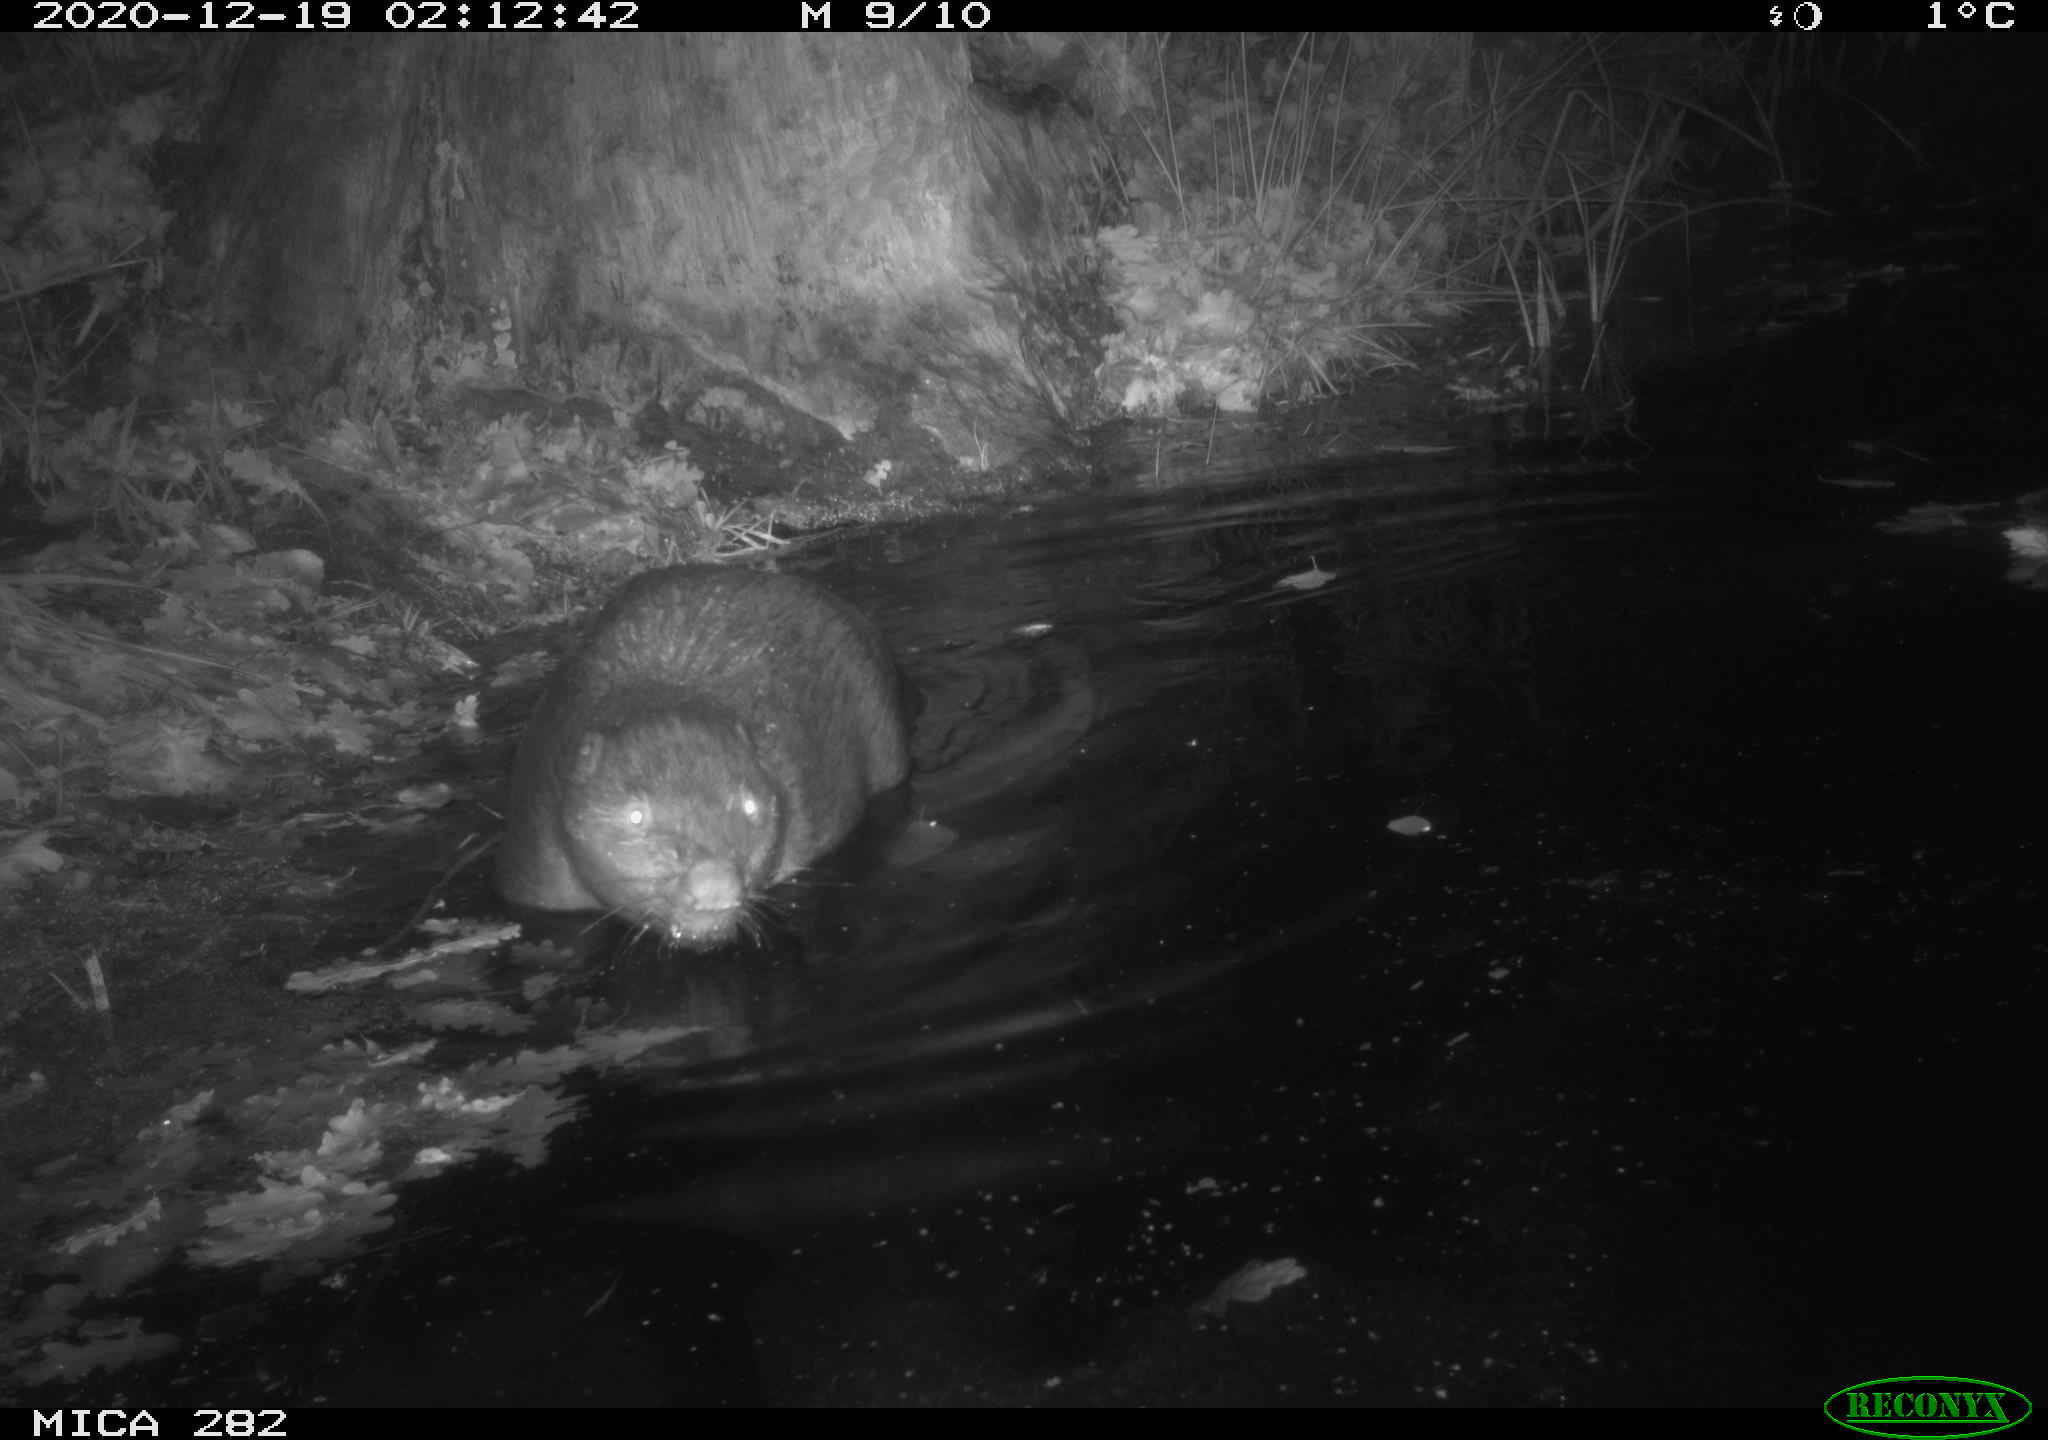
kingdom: Animalia
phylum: Chordata
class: Mammalia
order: Rodentia
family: Castoridae
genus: Castor
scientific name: Castor fiber
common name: Eurasian beaver
